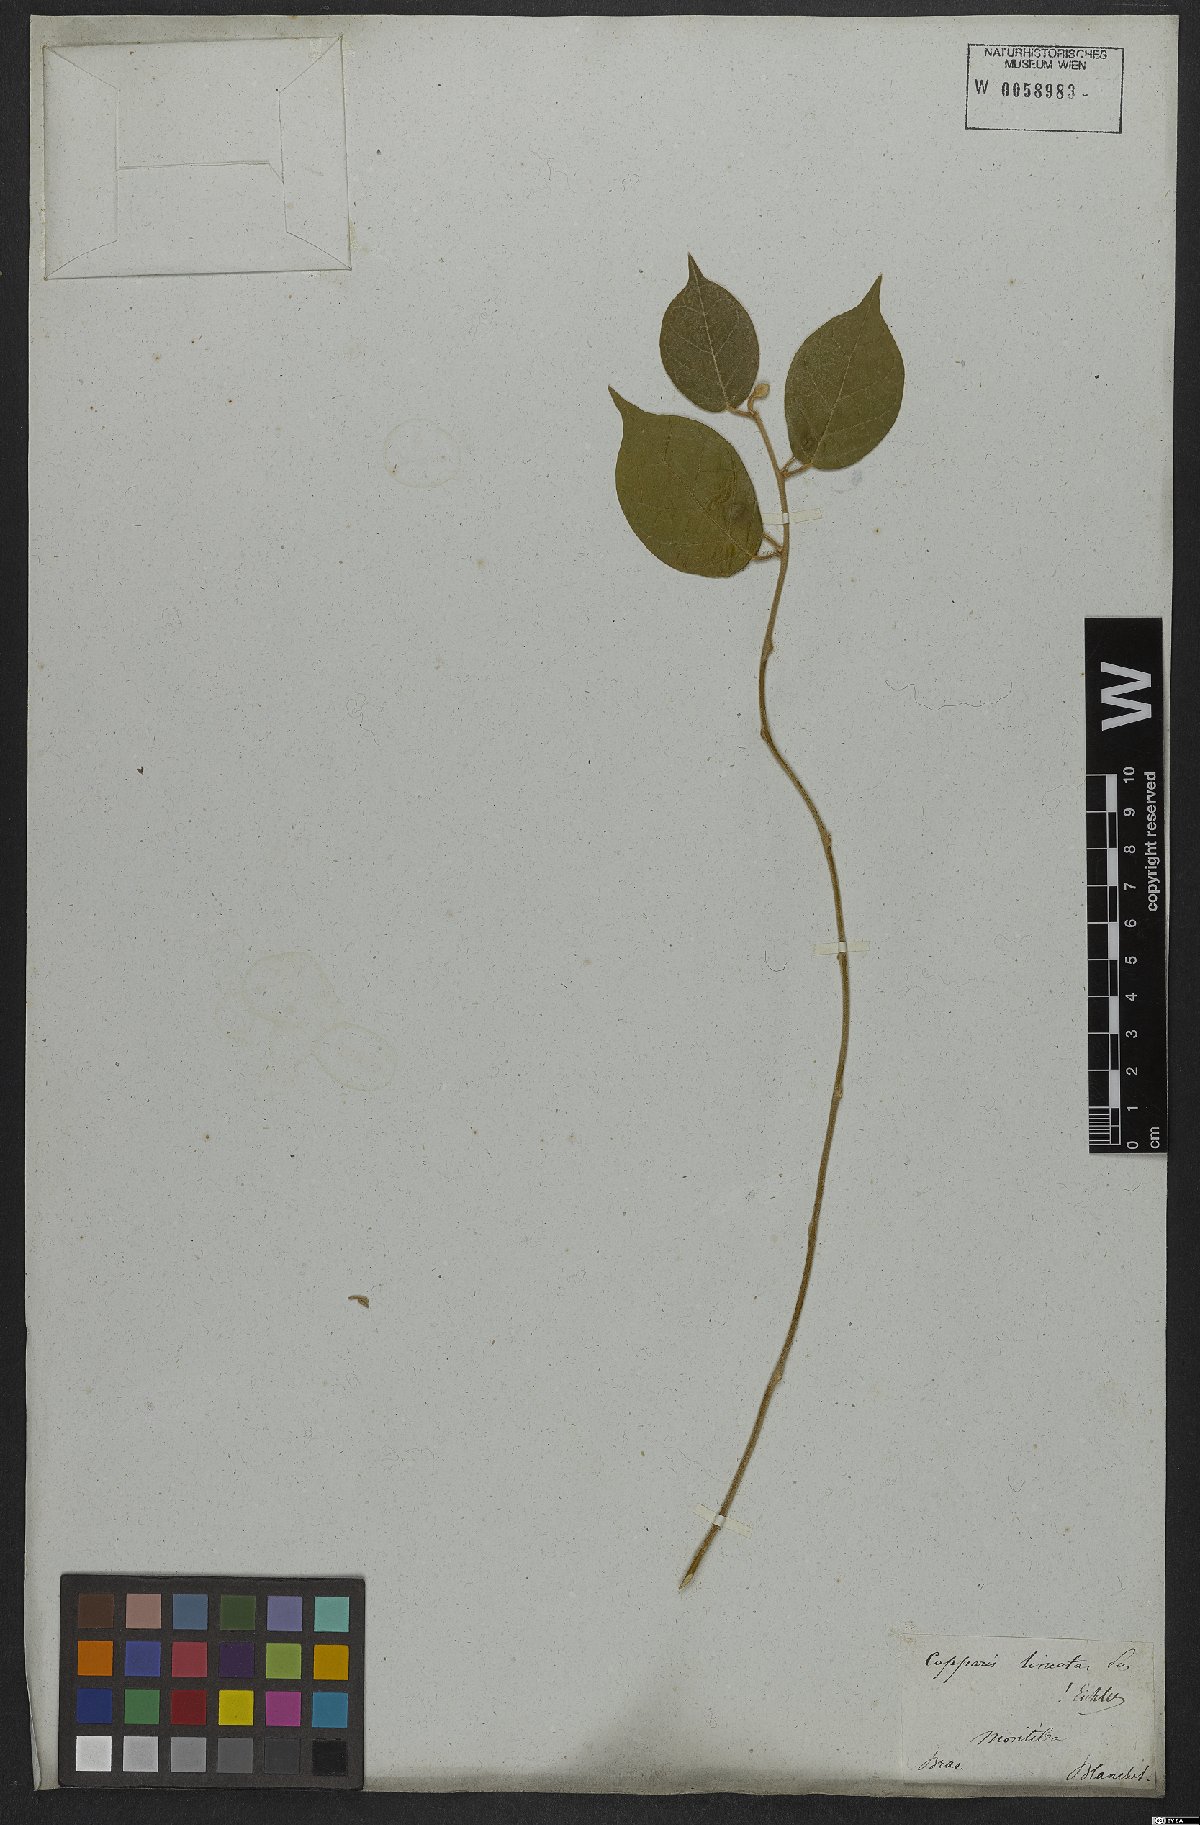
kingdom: Plantae
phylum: Tracheophyta
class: Magnoliopsida
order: Brassicales
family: Capparaceae
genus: Mesocapparis
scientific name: Mesocapparis lineata
